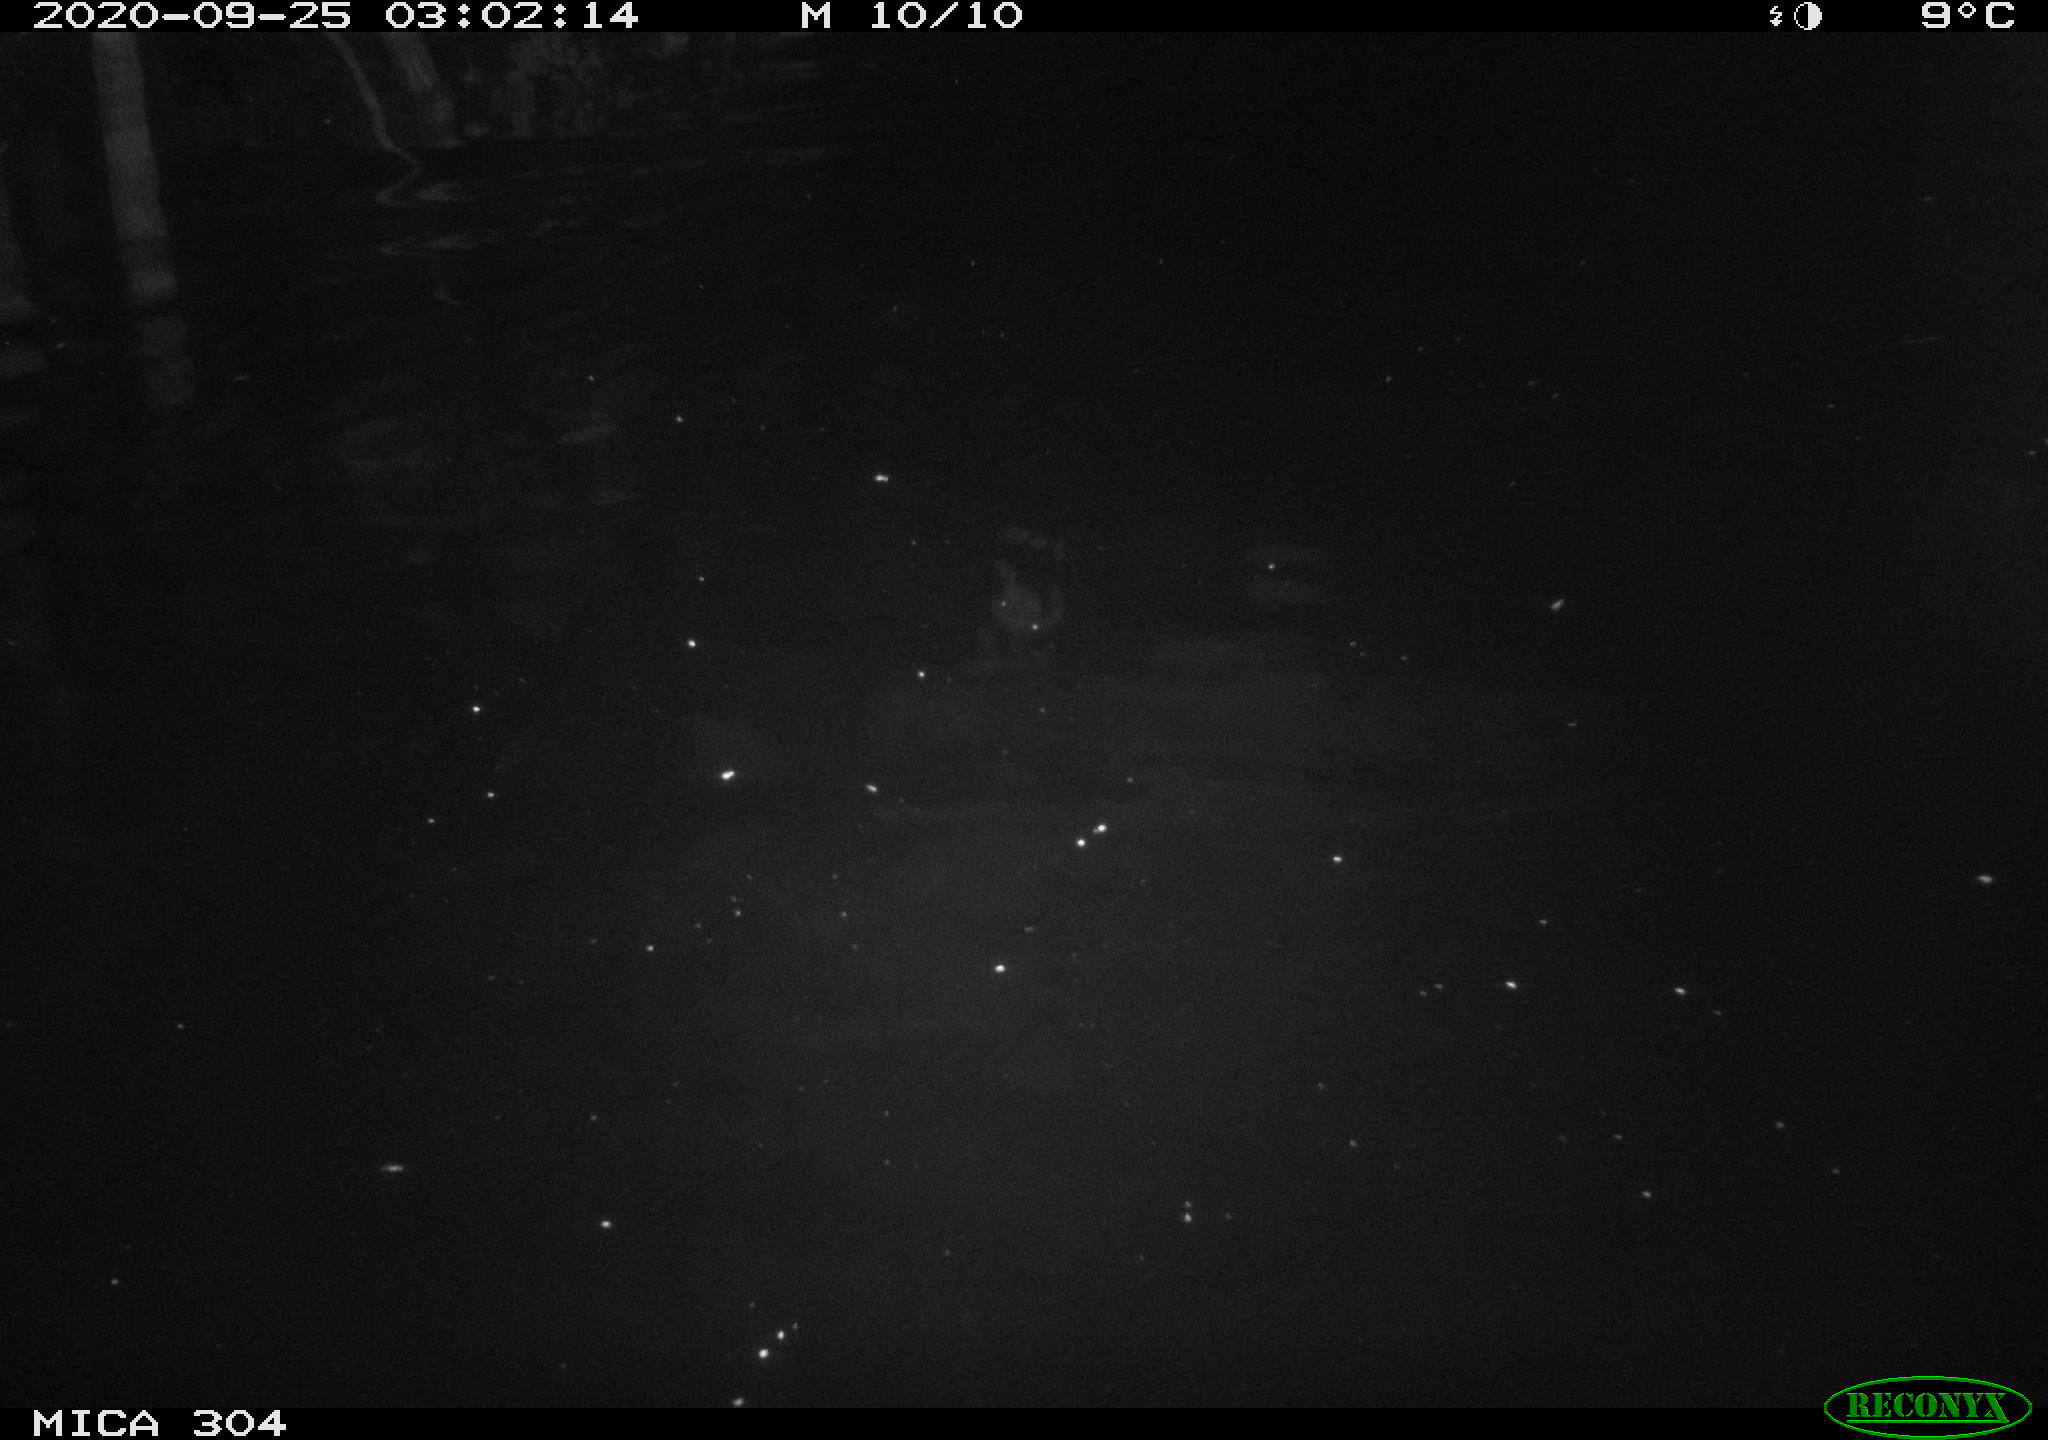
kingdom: Animalia
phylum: Chordata
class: Mammalia
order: Rodentia
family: Cricetidae
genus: Ondatra
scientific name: Ondatra zibethicus
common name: Muskrat
